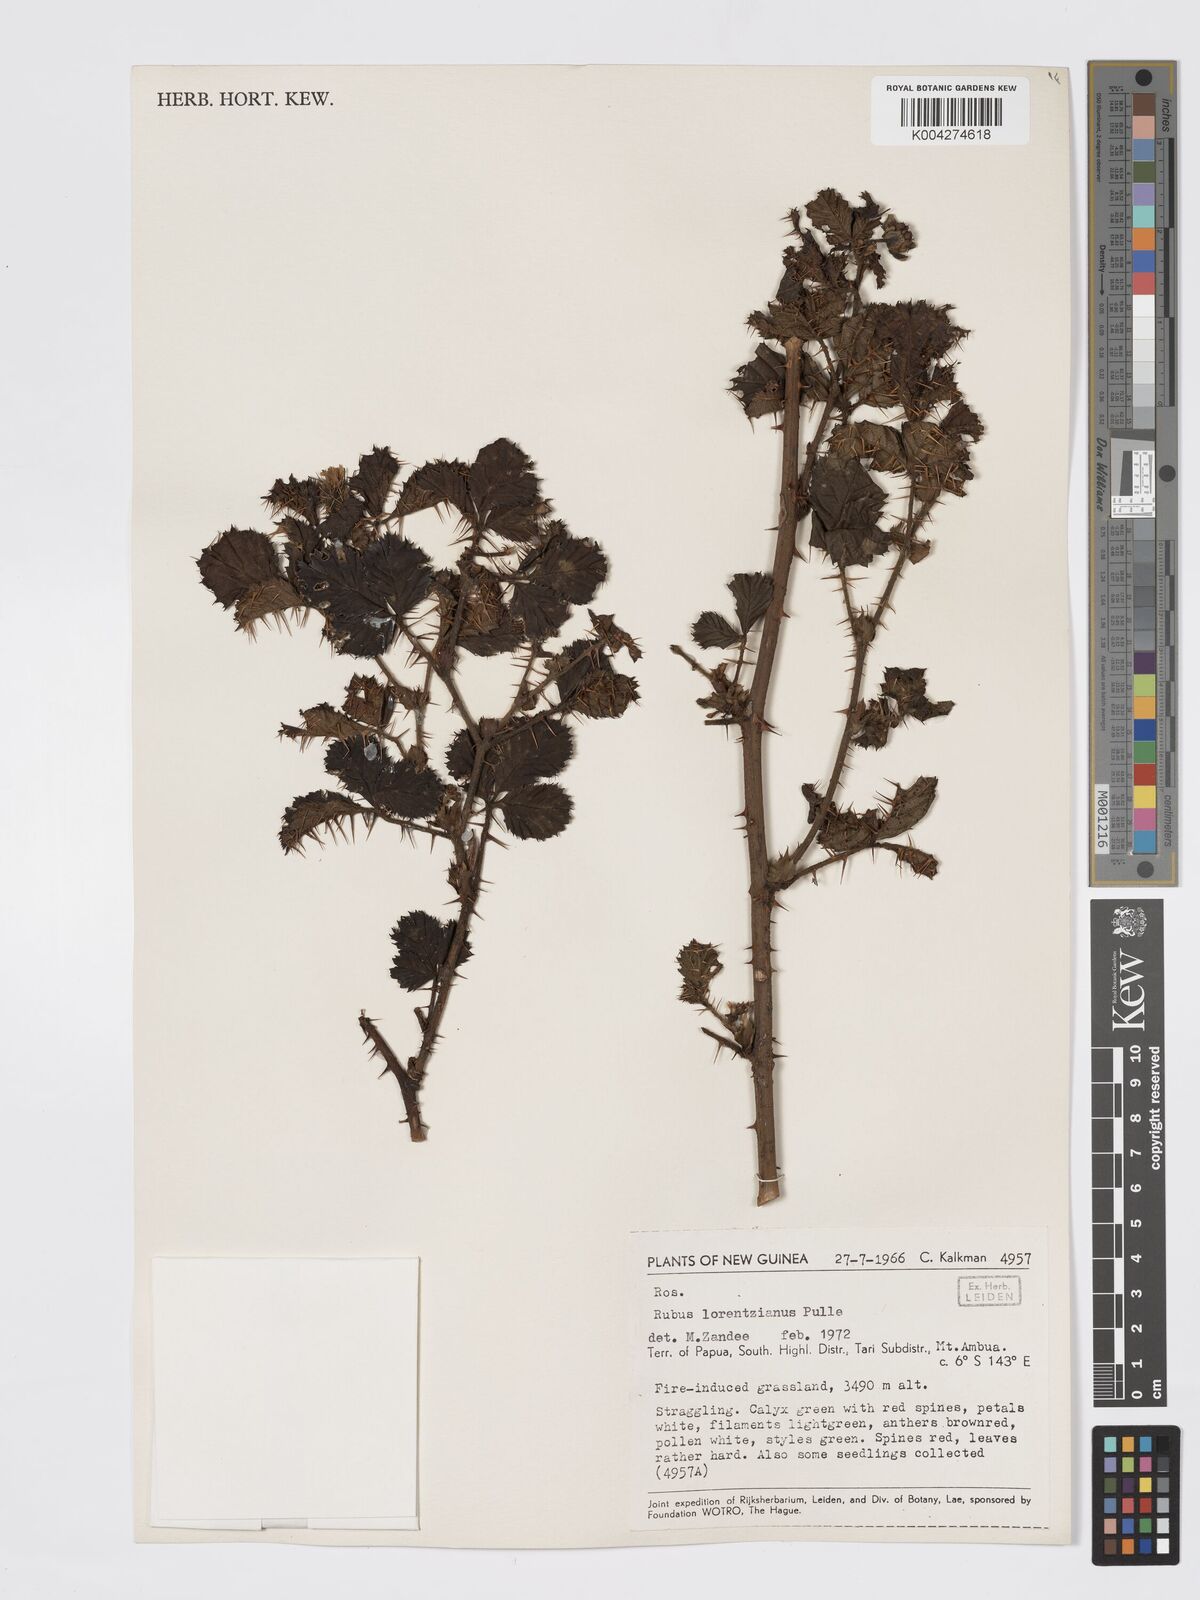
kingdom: Plantae
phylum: Tracheophyta
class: Magnoliopsida
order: Rosales
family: Rosaceae
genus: Rubus
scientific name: Rubus lorentzianus
